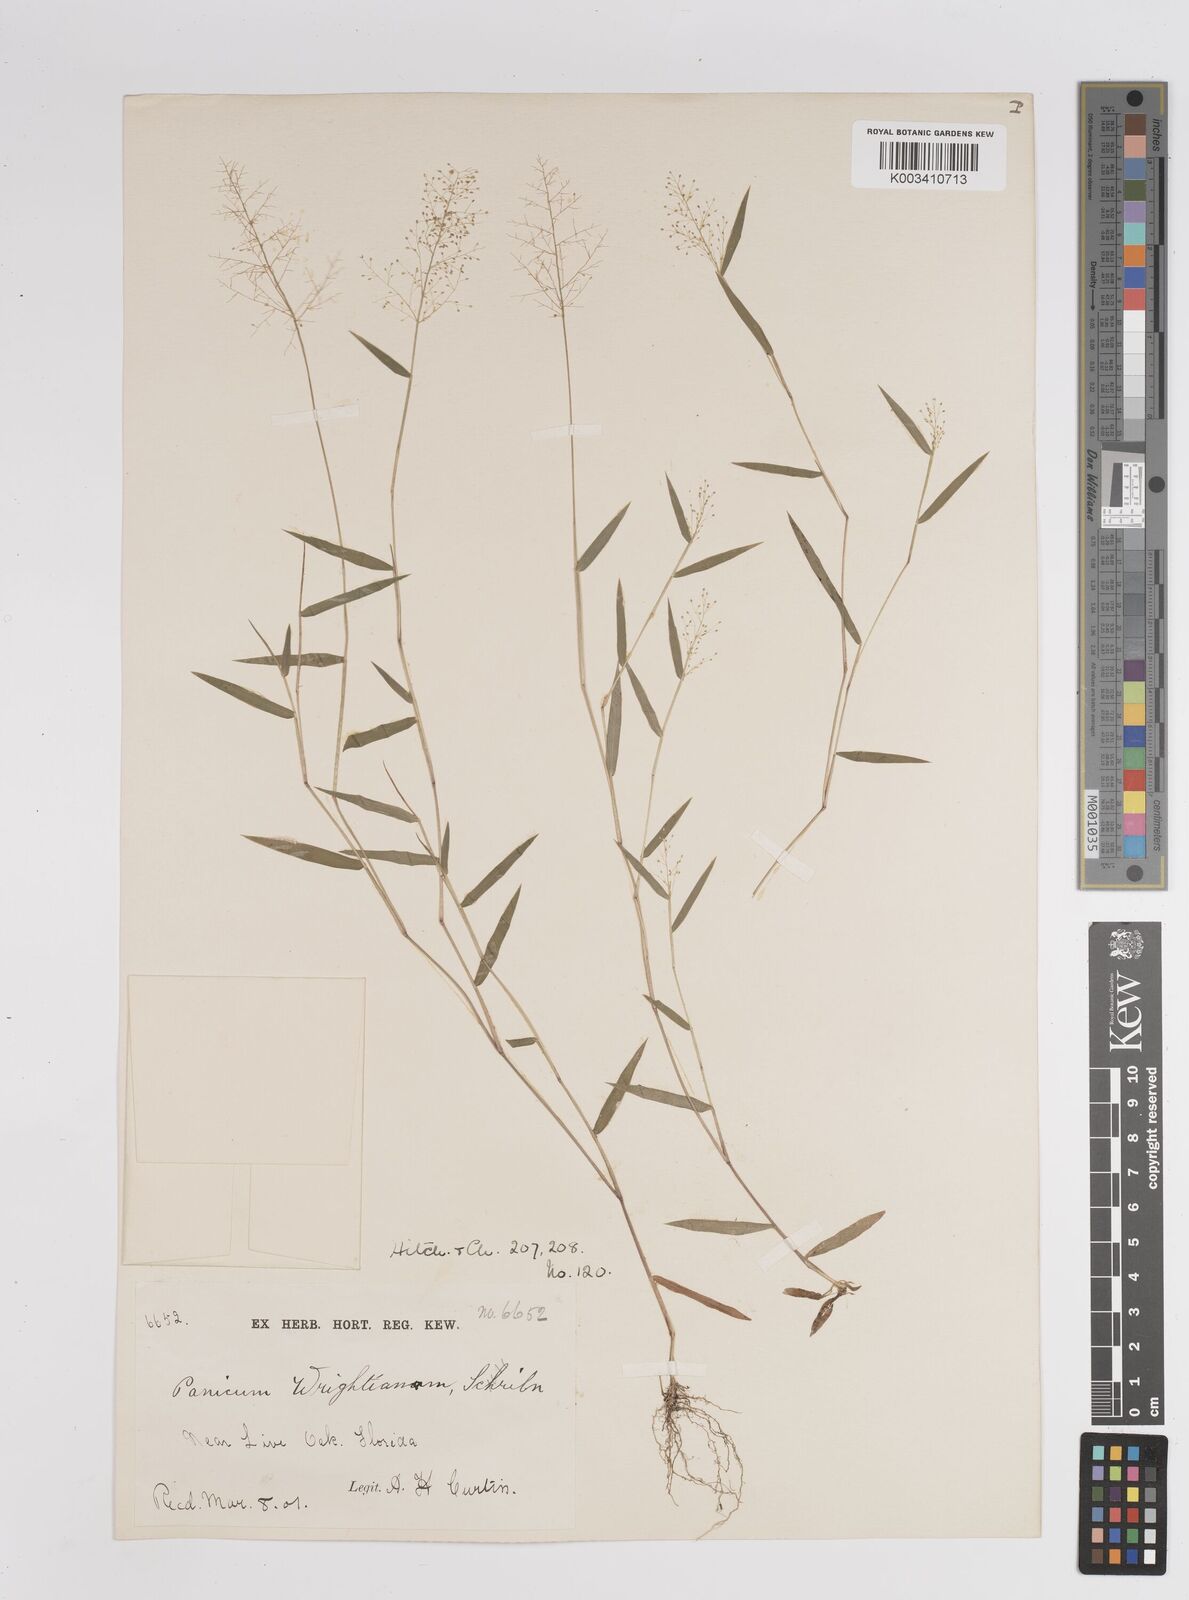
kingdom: Plantae
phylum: Tracheophyta
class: Liliopsida
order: Poales
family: Poaceae
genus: Dichanthelium
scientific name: Dichanthelium wrightianum
